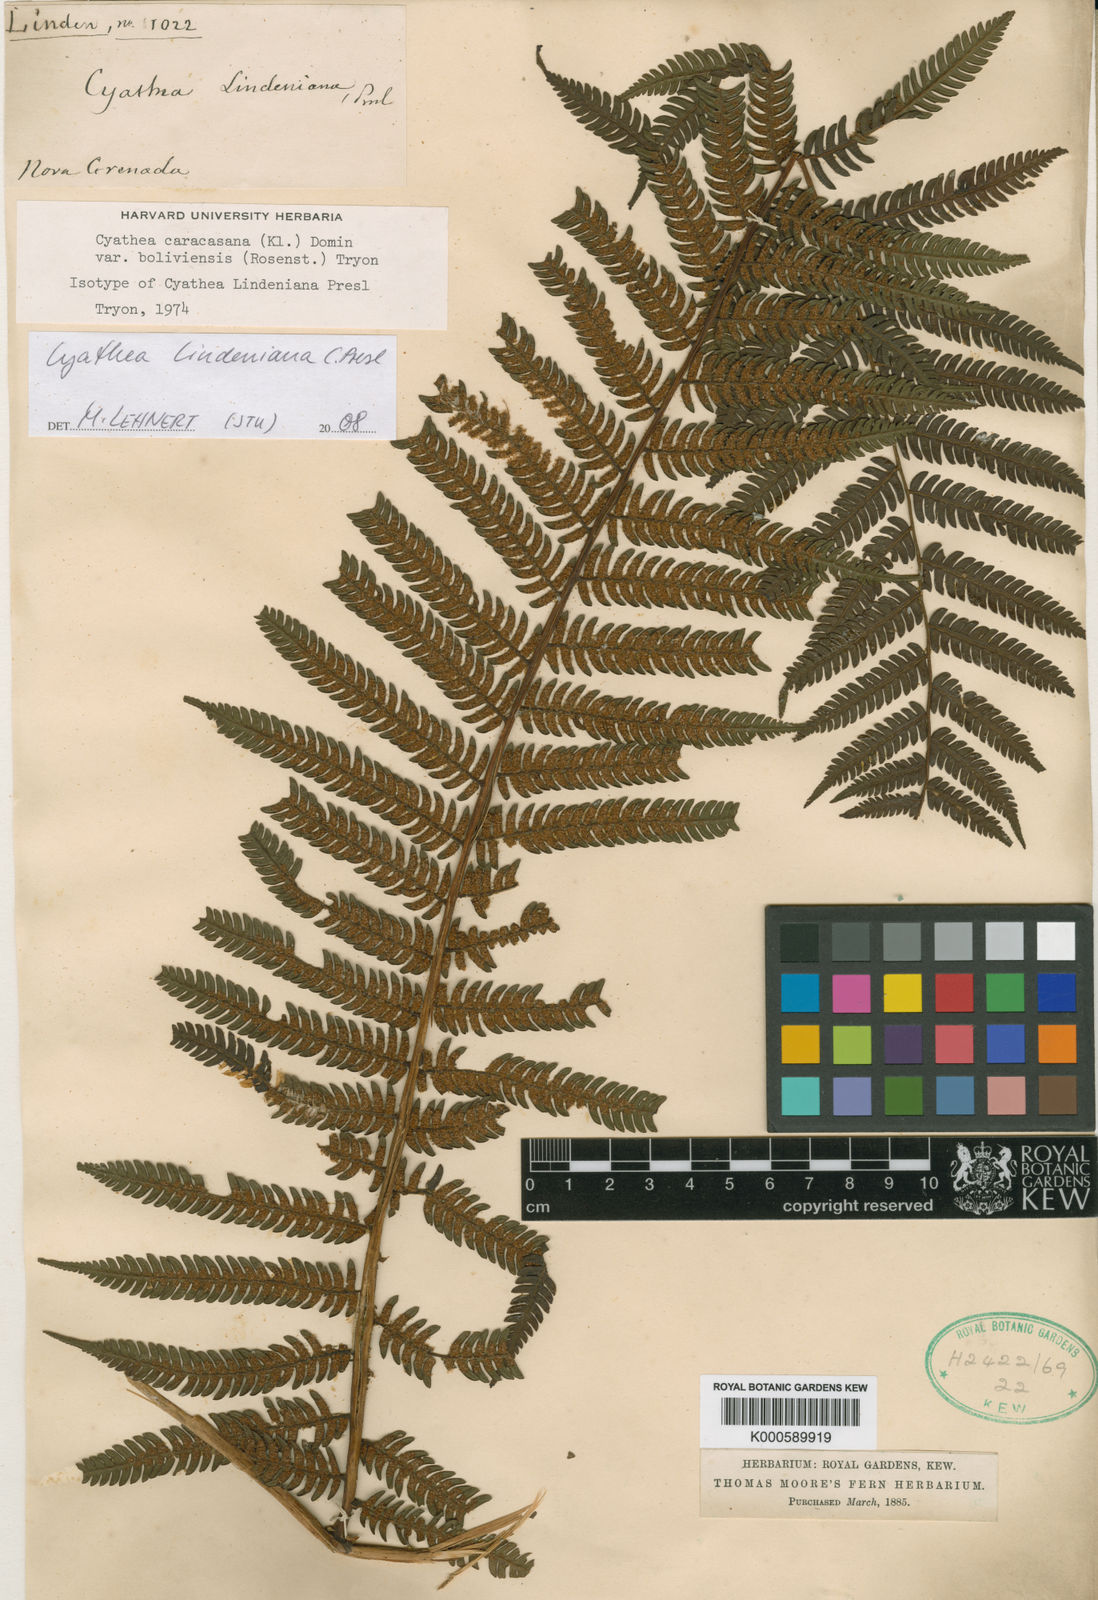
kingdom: Plantae
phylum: Tracheophyta
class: Polypodiopsida
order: Cyatheales
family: Cyatheaceae
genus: Cyathea
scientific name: Cyathea squamipes
